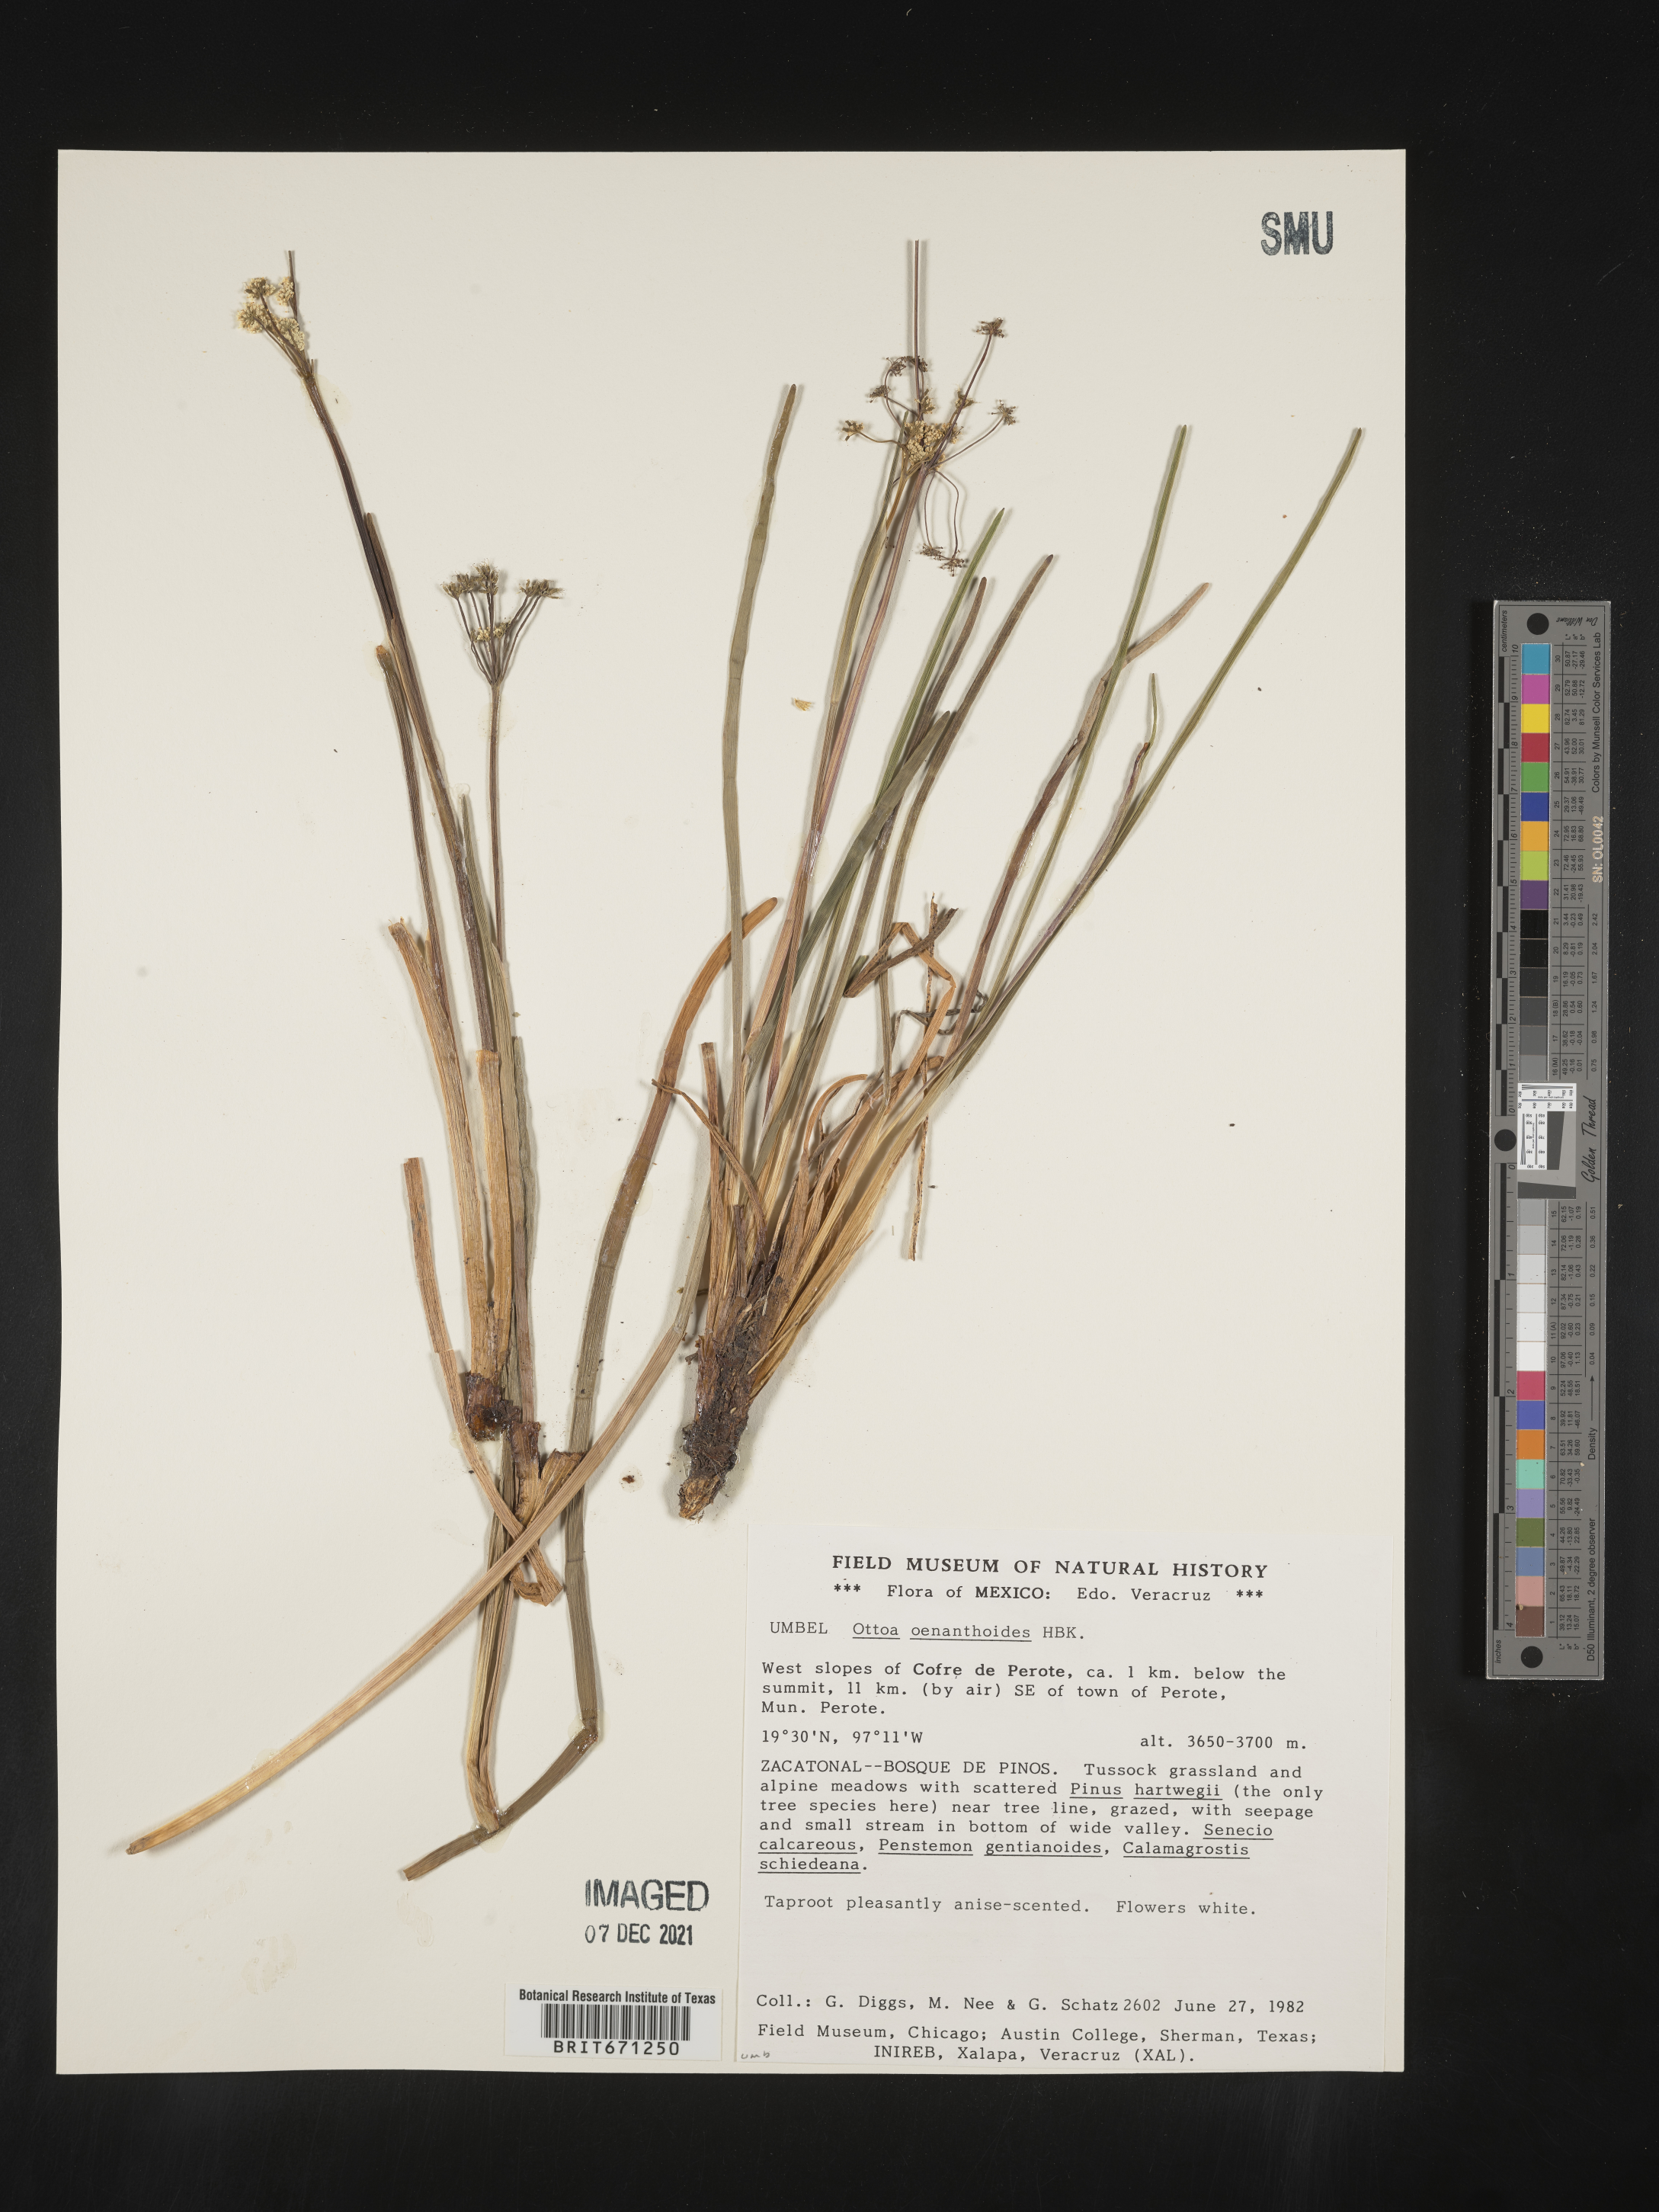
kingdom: Plantae
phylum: Tracheophyta
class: Magnoliopsida
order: Apiales
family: Apiaceae
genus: Ottoa
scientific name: Ottoa
